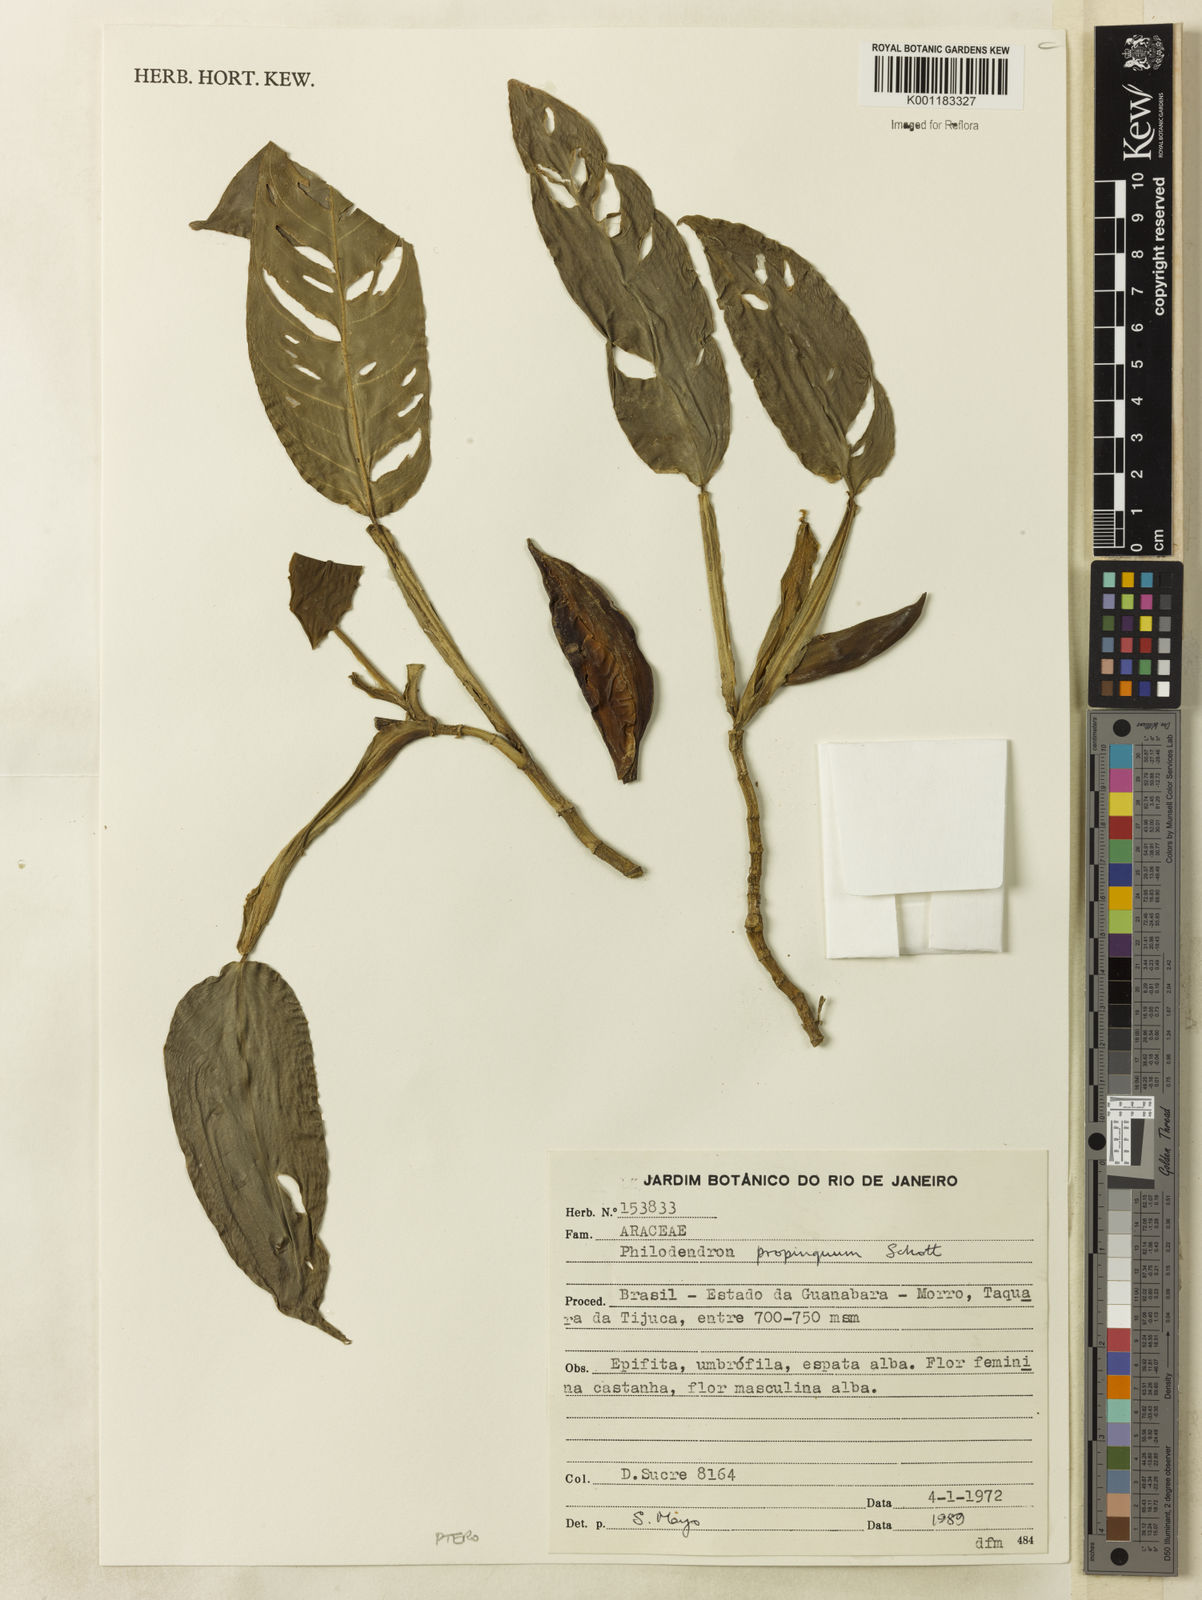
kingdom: Plantae
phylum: Tracheophyta
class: Liliopsida
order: Alismatales
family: Araceae
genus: Philodendron
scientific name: Philodendron propinquum
